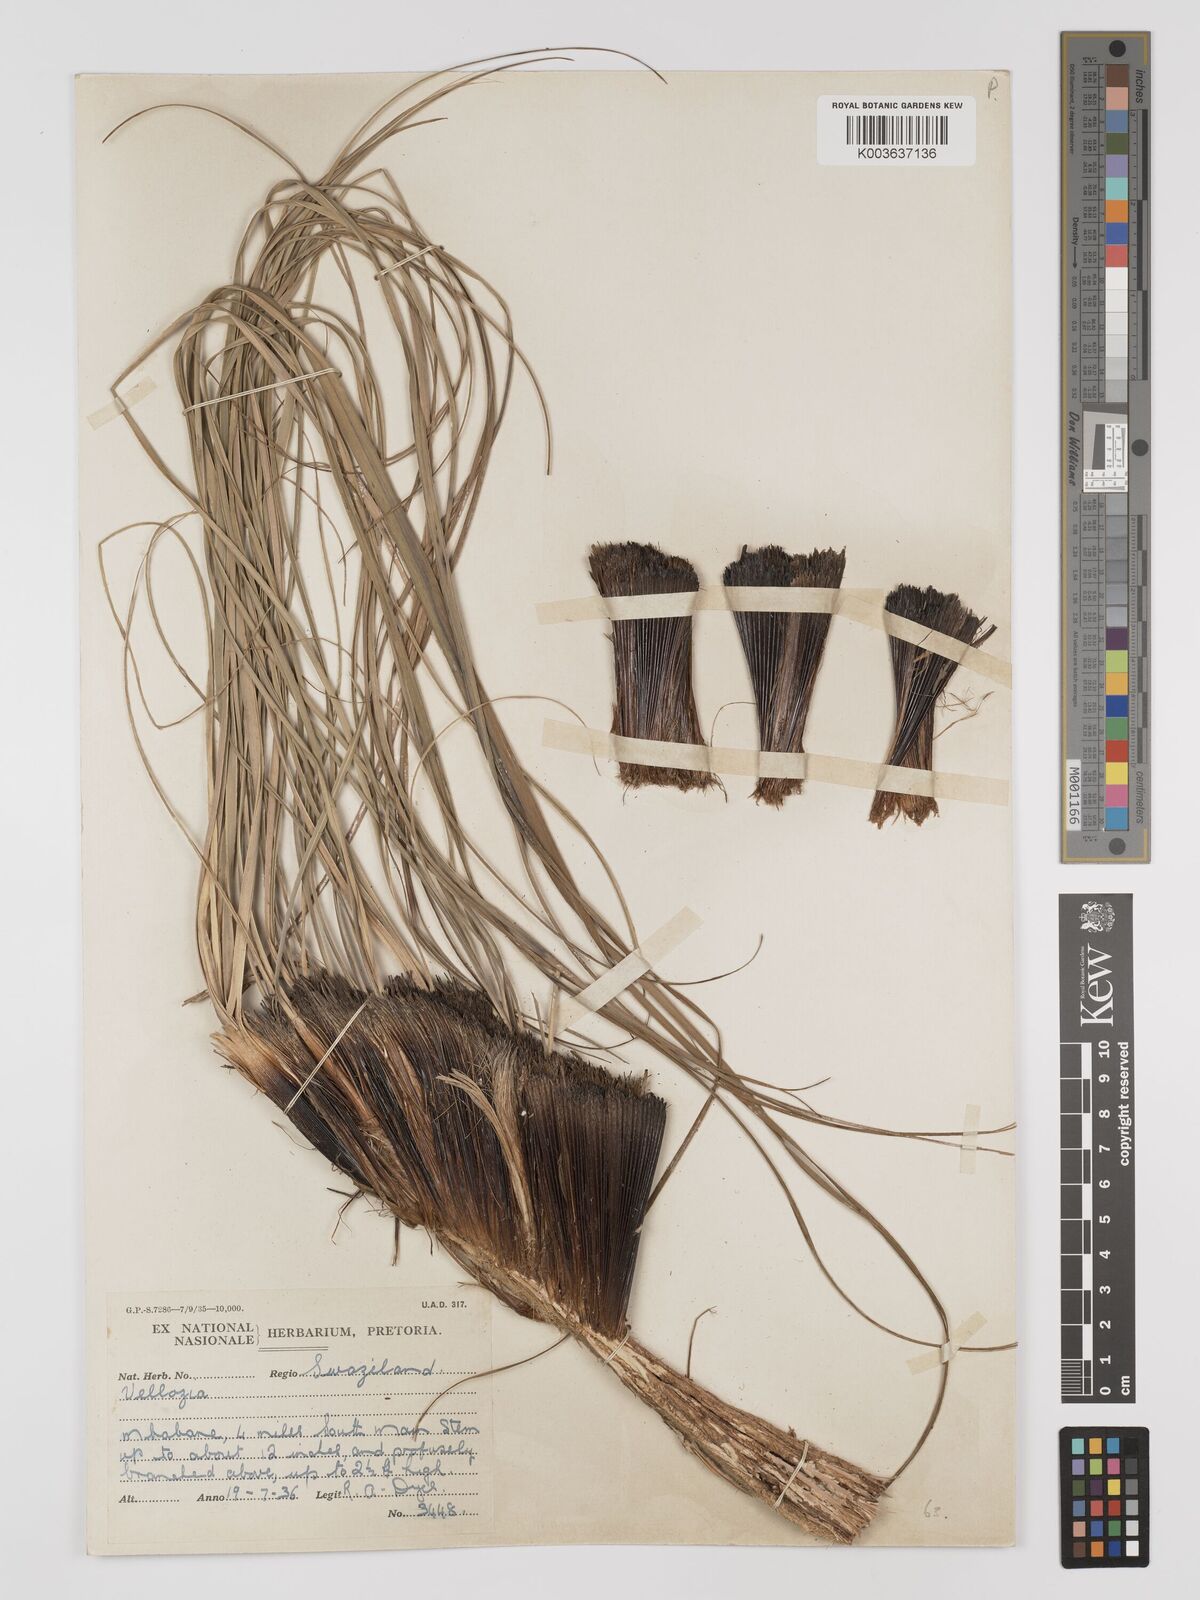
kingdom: Plantae
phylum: Tracheophyta
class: Liliopsida
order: Pandanales
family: Velloziaceae
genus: Xerophyta
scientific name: Xerophyta
